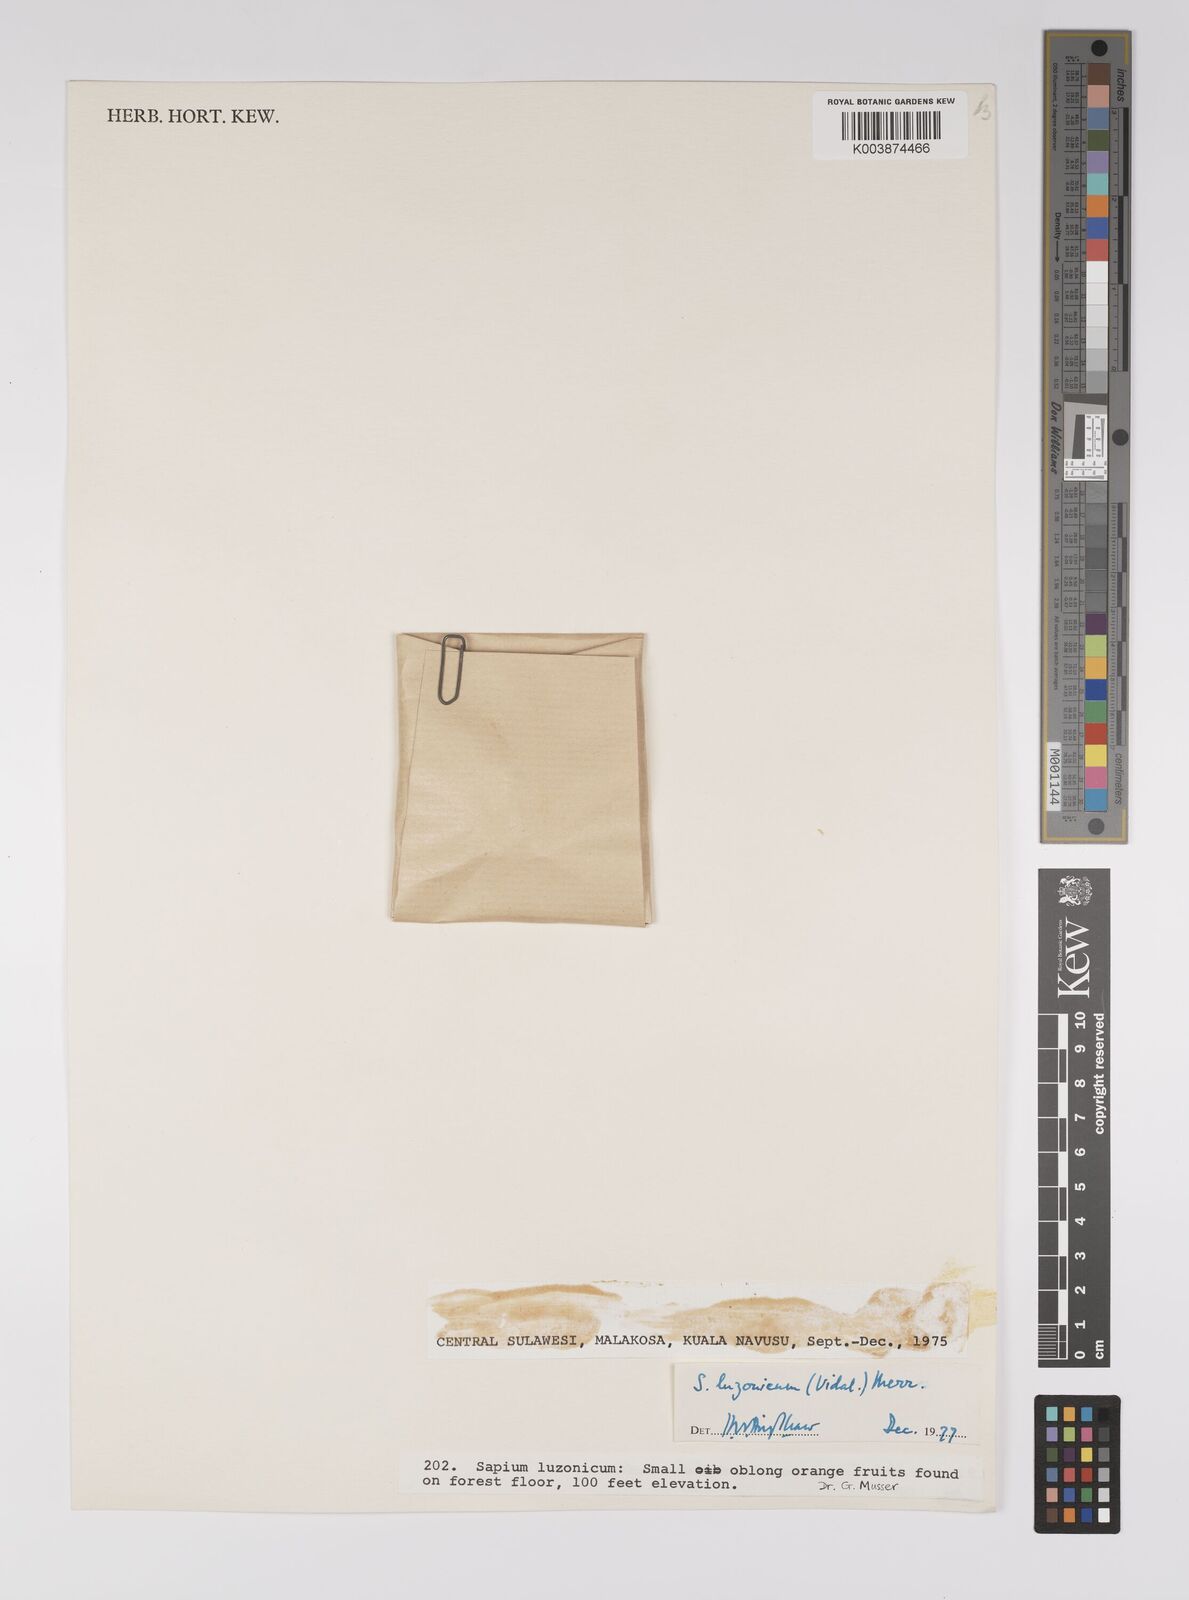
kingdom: Plantae
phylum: Tracheophyta
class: Magnoliopsida
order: Malpighiales
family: Euphorbiaceae
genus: Balakata
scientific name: Balakata luzonica
